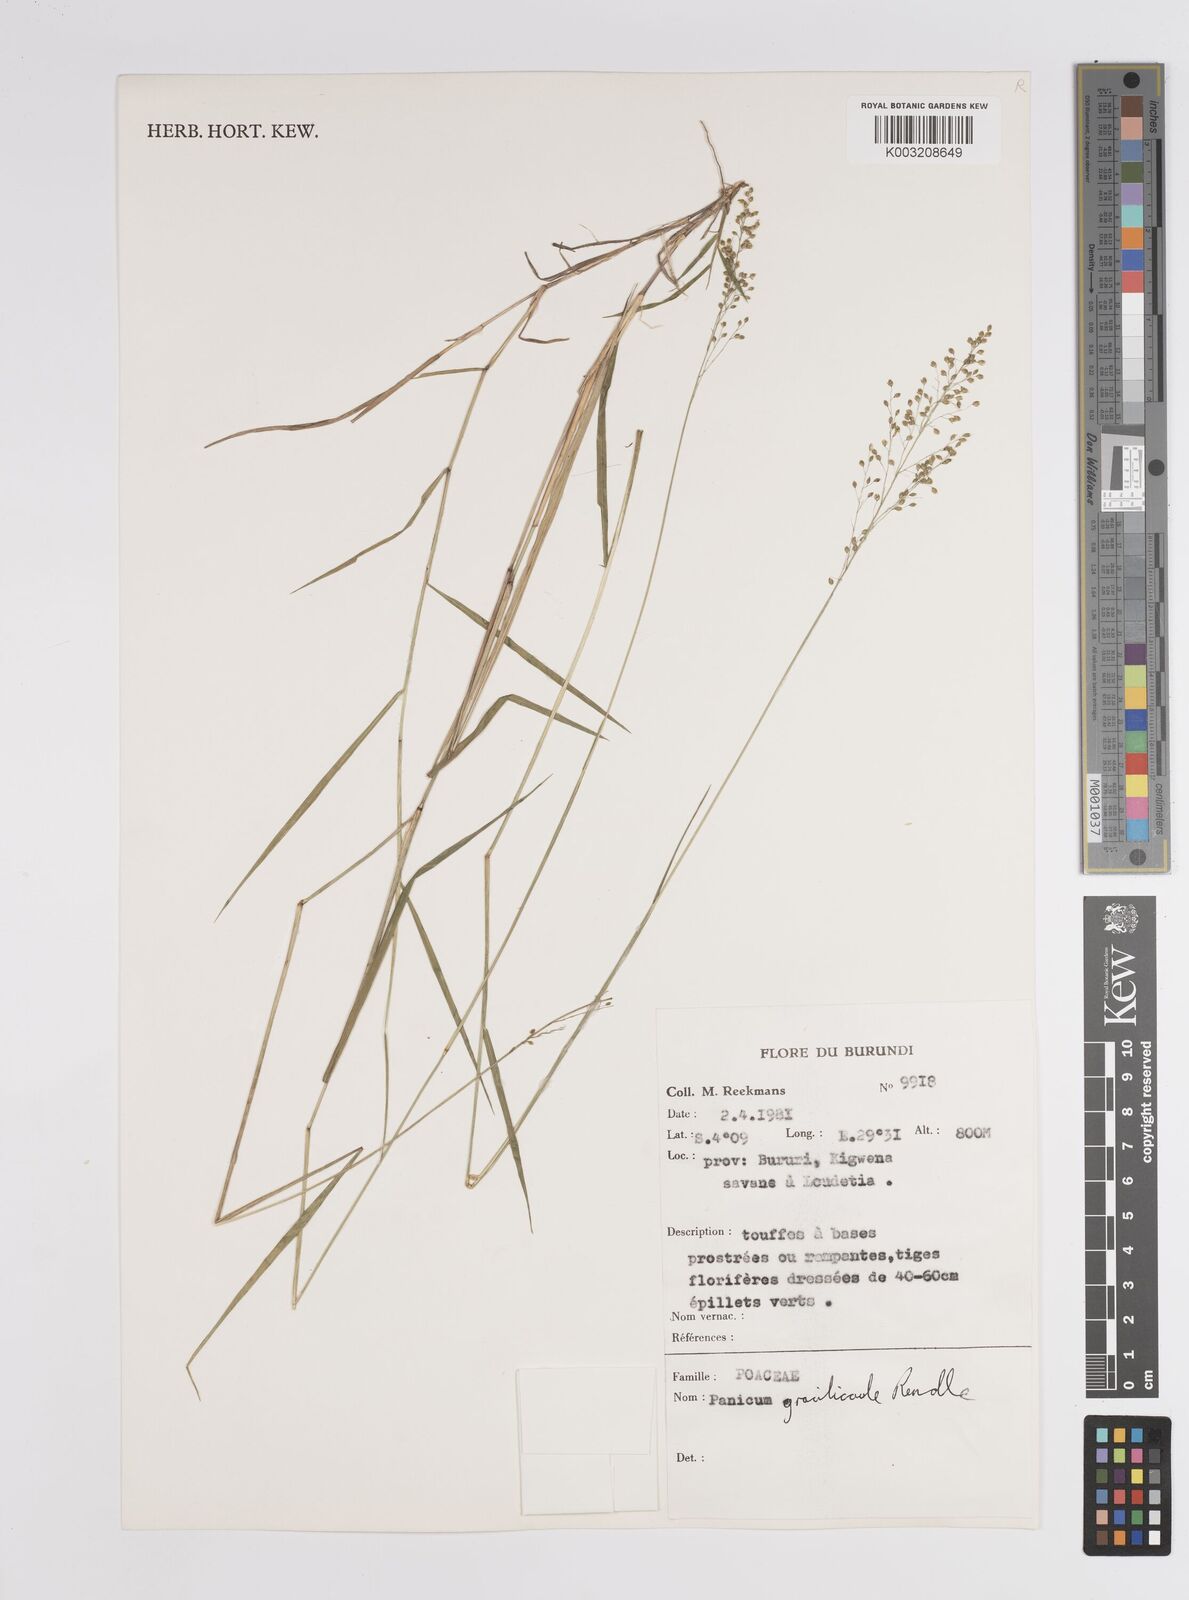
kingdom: Plantae
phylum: Tracheophyta
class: Liliopsida
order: Poales
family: Poaceae
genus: Panicum
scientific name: Panicum
